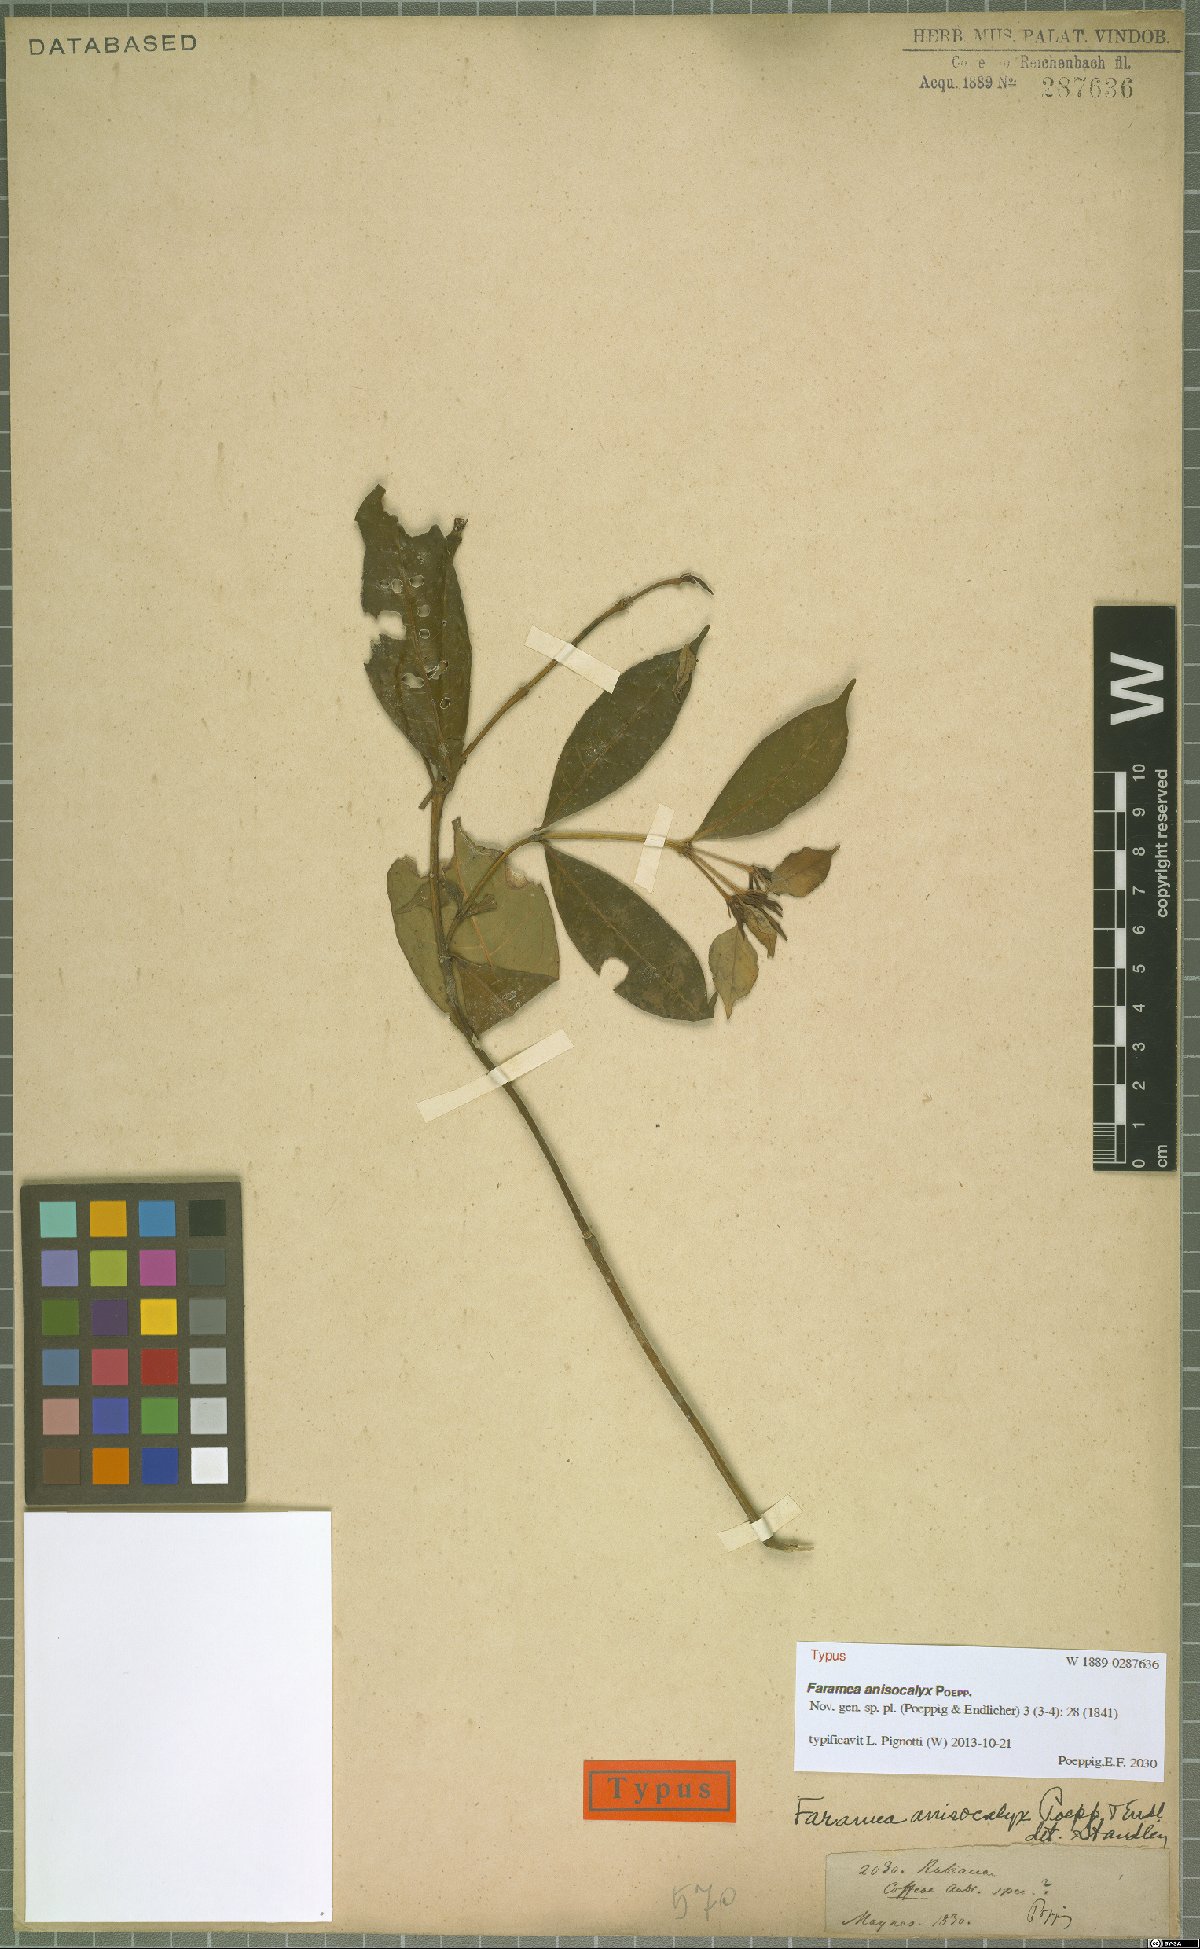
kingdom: Plantae
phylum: Tracheophyta
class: Magnoliopsida
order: Gentianales
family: Rubiaceae
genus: Faramea
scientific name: Faramea anisocalyx
